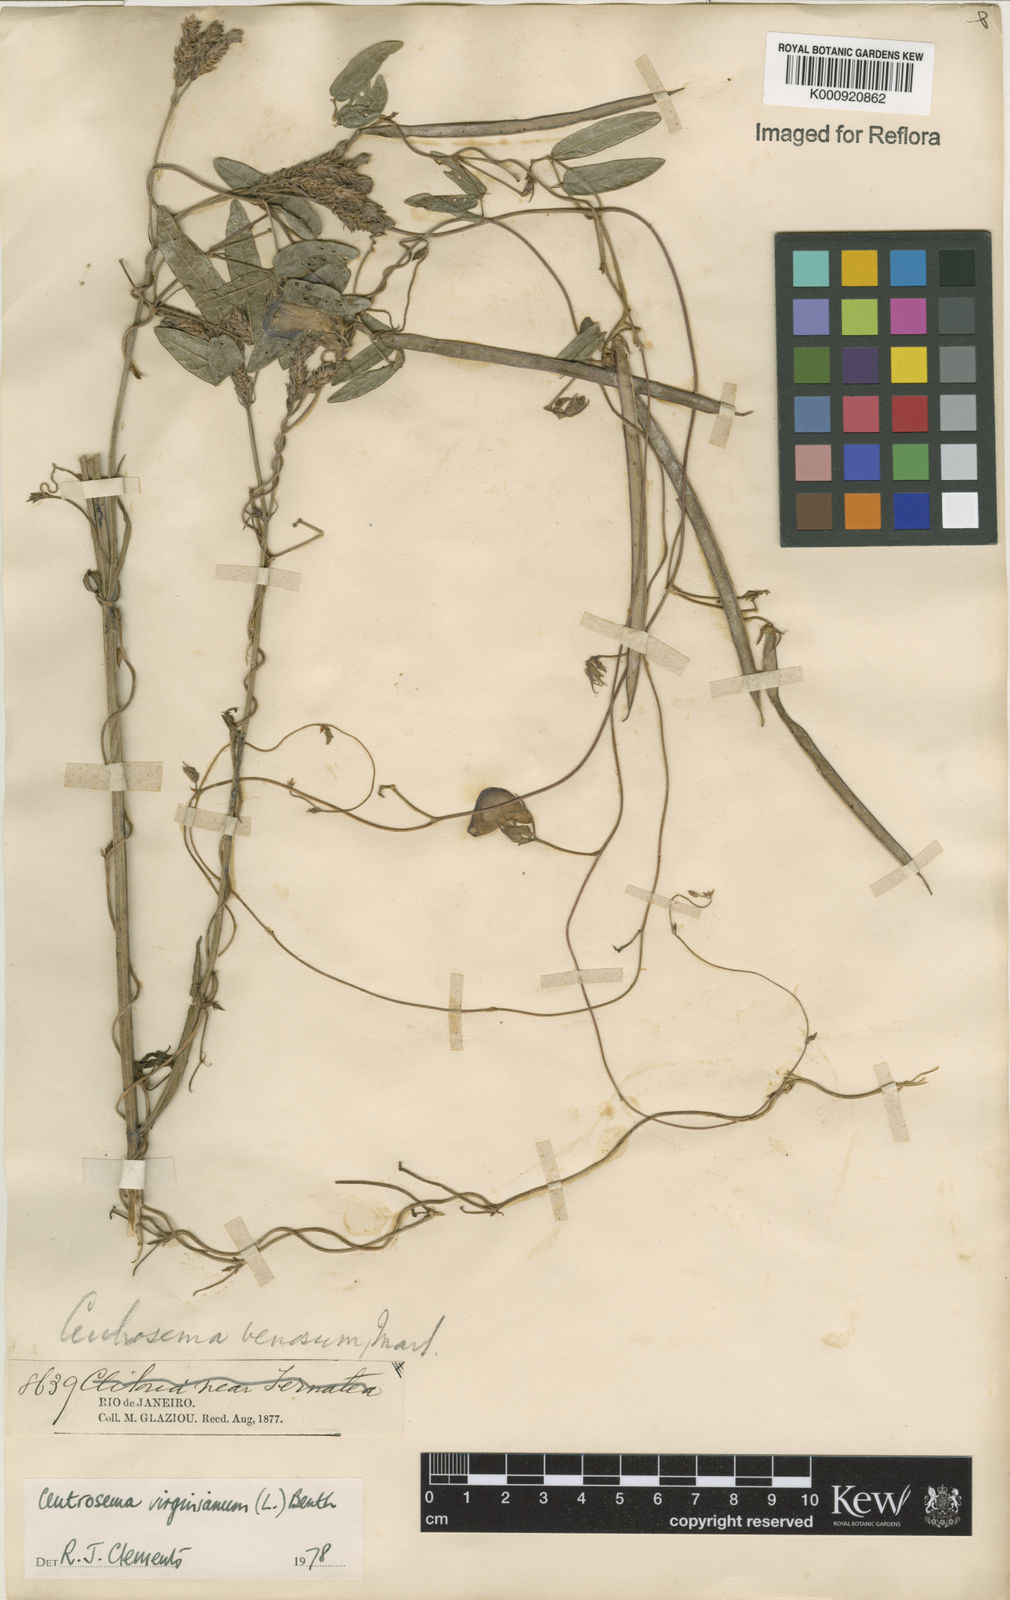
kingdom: Plantae
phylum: Tracheophyta
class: Magnoliopsida
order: Fabales
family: Fabaceae
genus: Centrosema
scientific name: Centrosema virginianum
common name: Butterfly-pea
